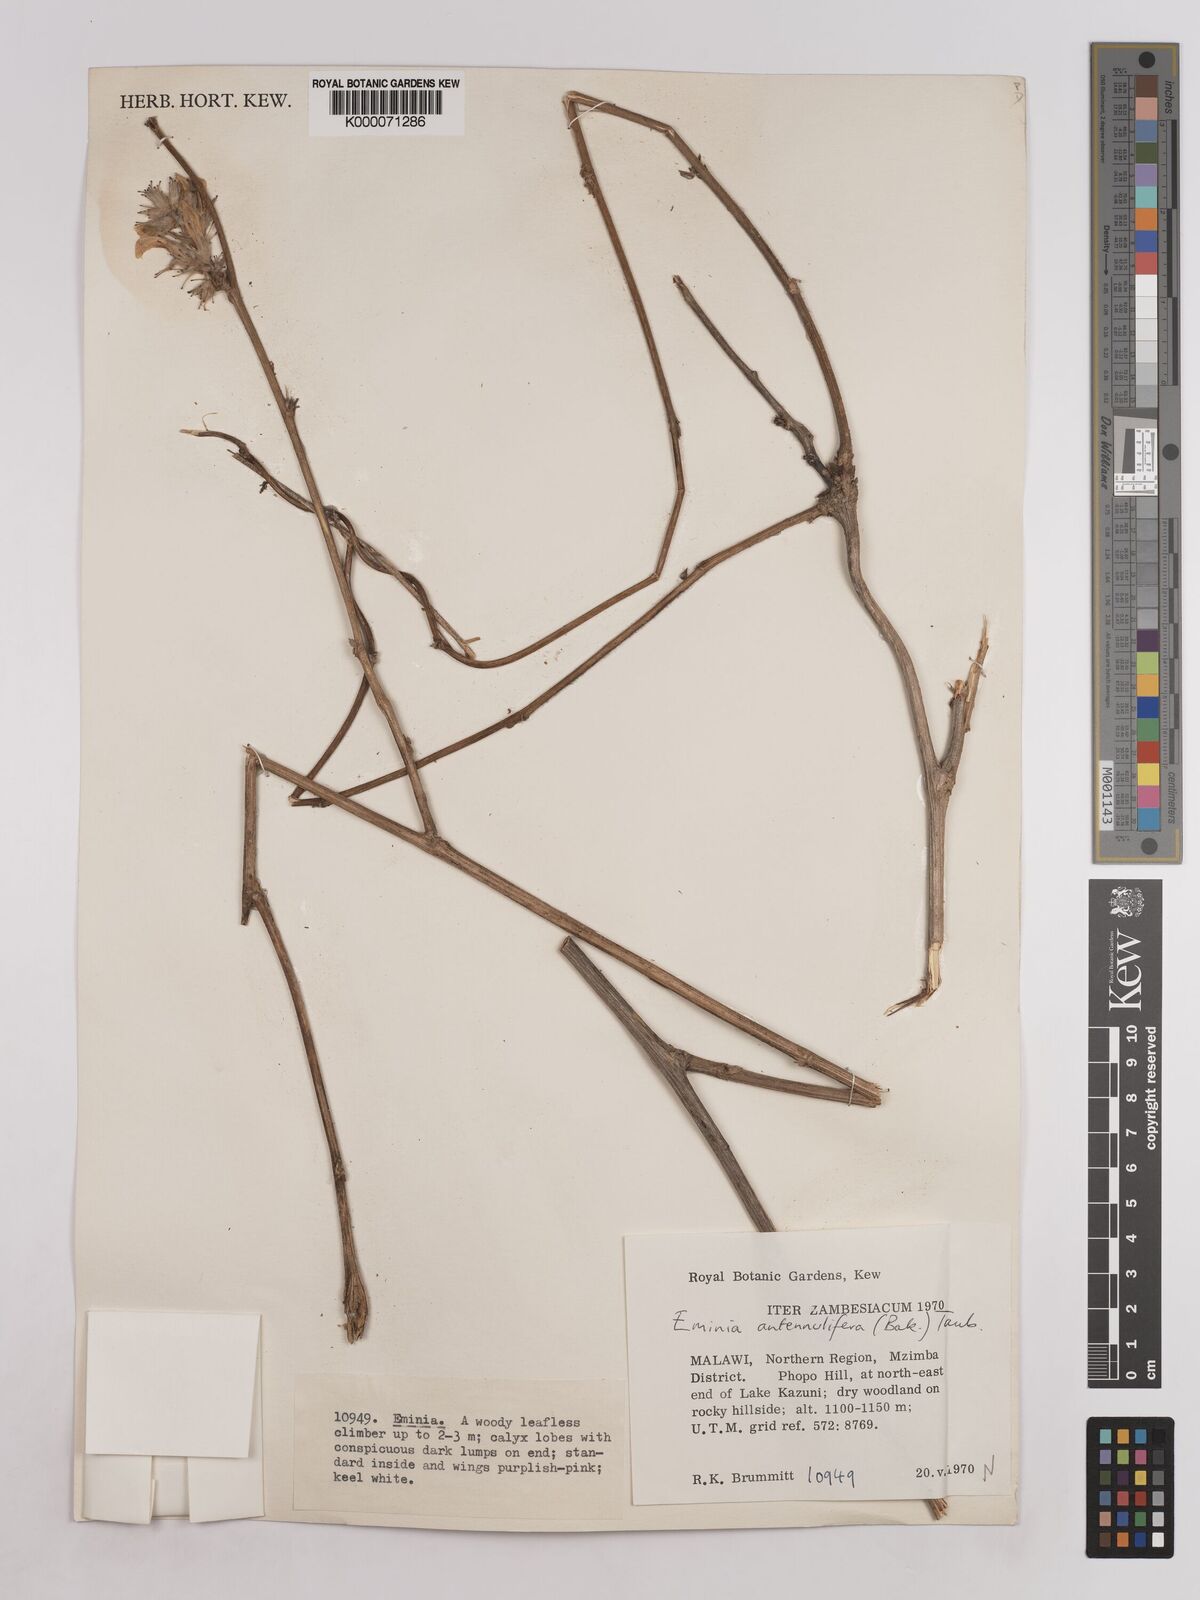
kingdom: Plantae
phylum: Tracheophyta
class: Magnoliopsida
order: Fabales
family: Fabaceae
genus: Eminia
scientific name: Eminia antennulifera
